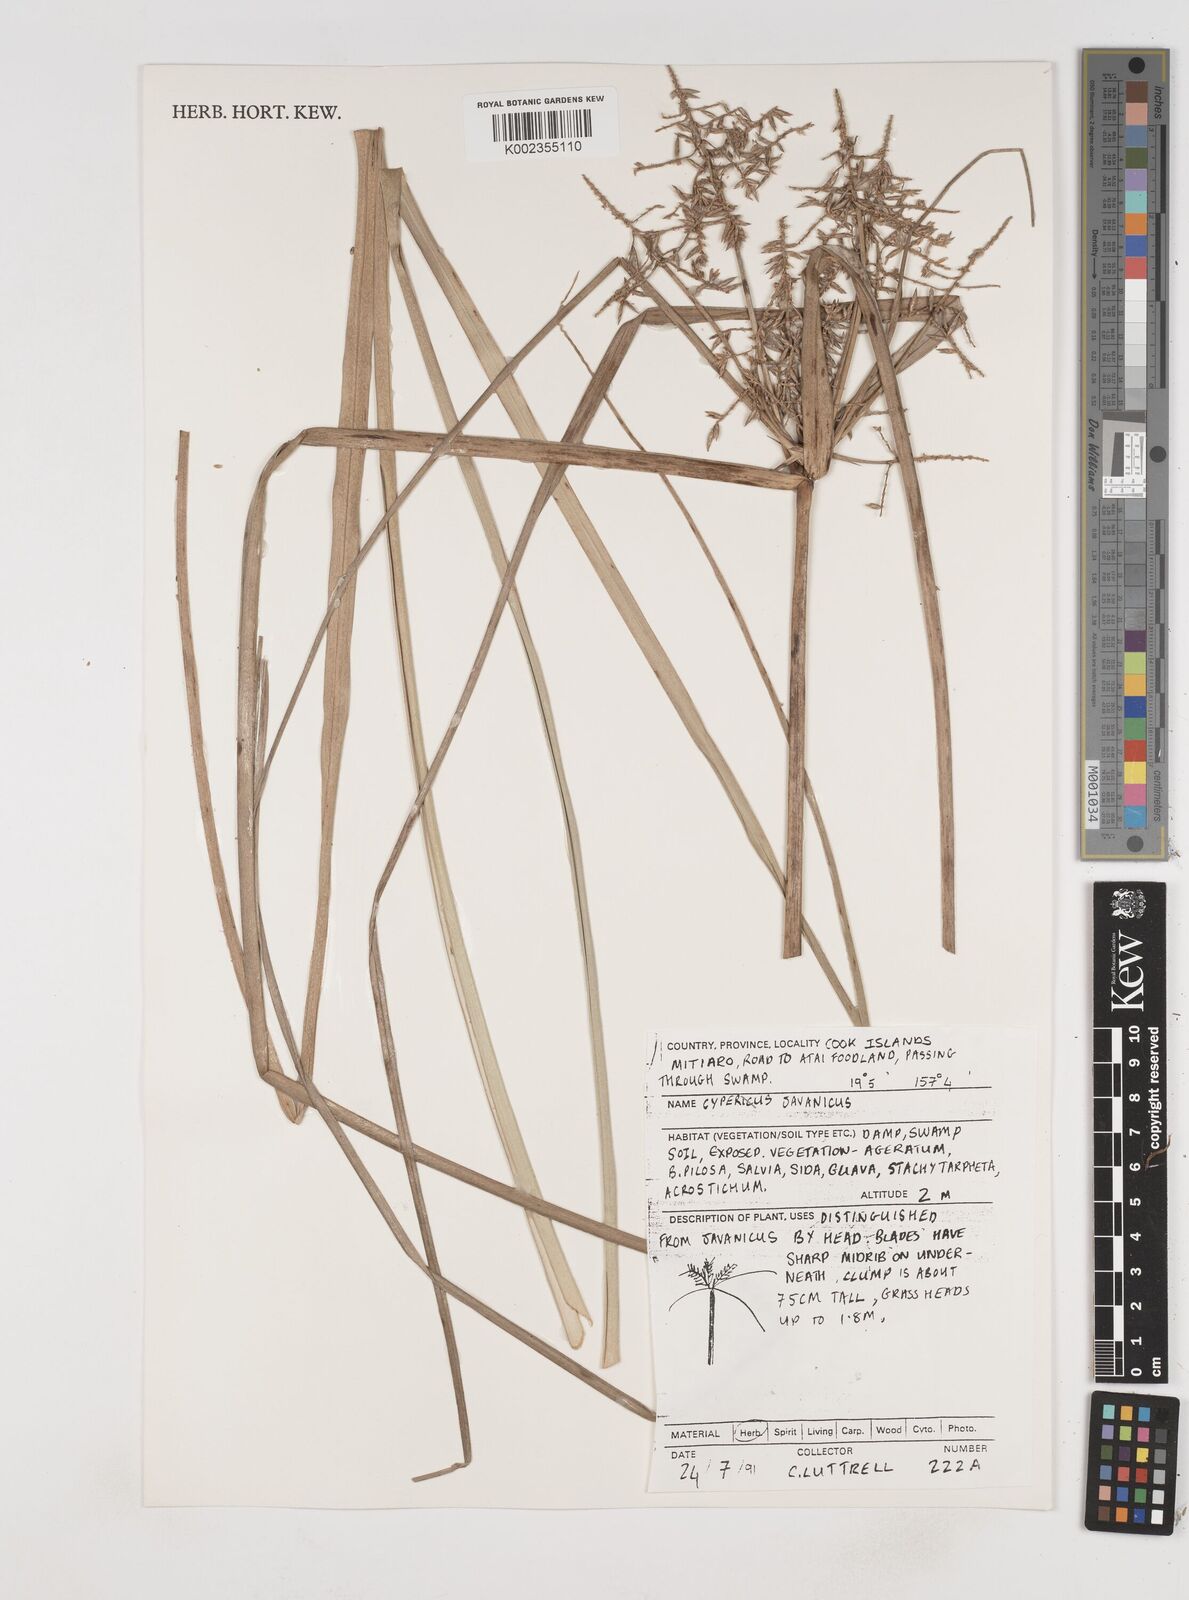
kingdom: Plantae
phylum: Tracheophyta
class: Liliopsida
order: Poales
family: Cyperaceae
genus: Cyperus
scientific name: Cyperus javanicus
